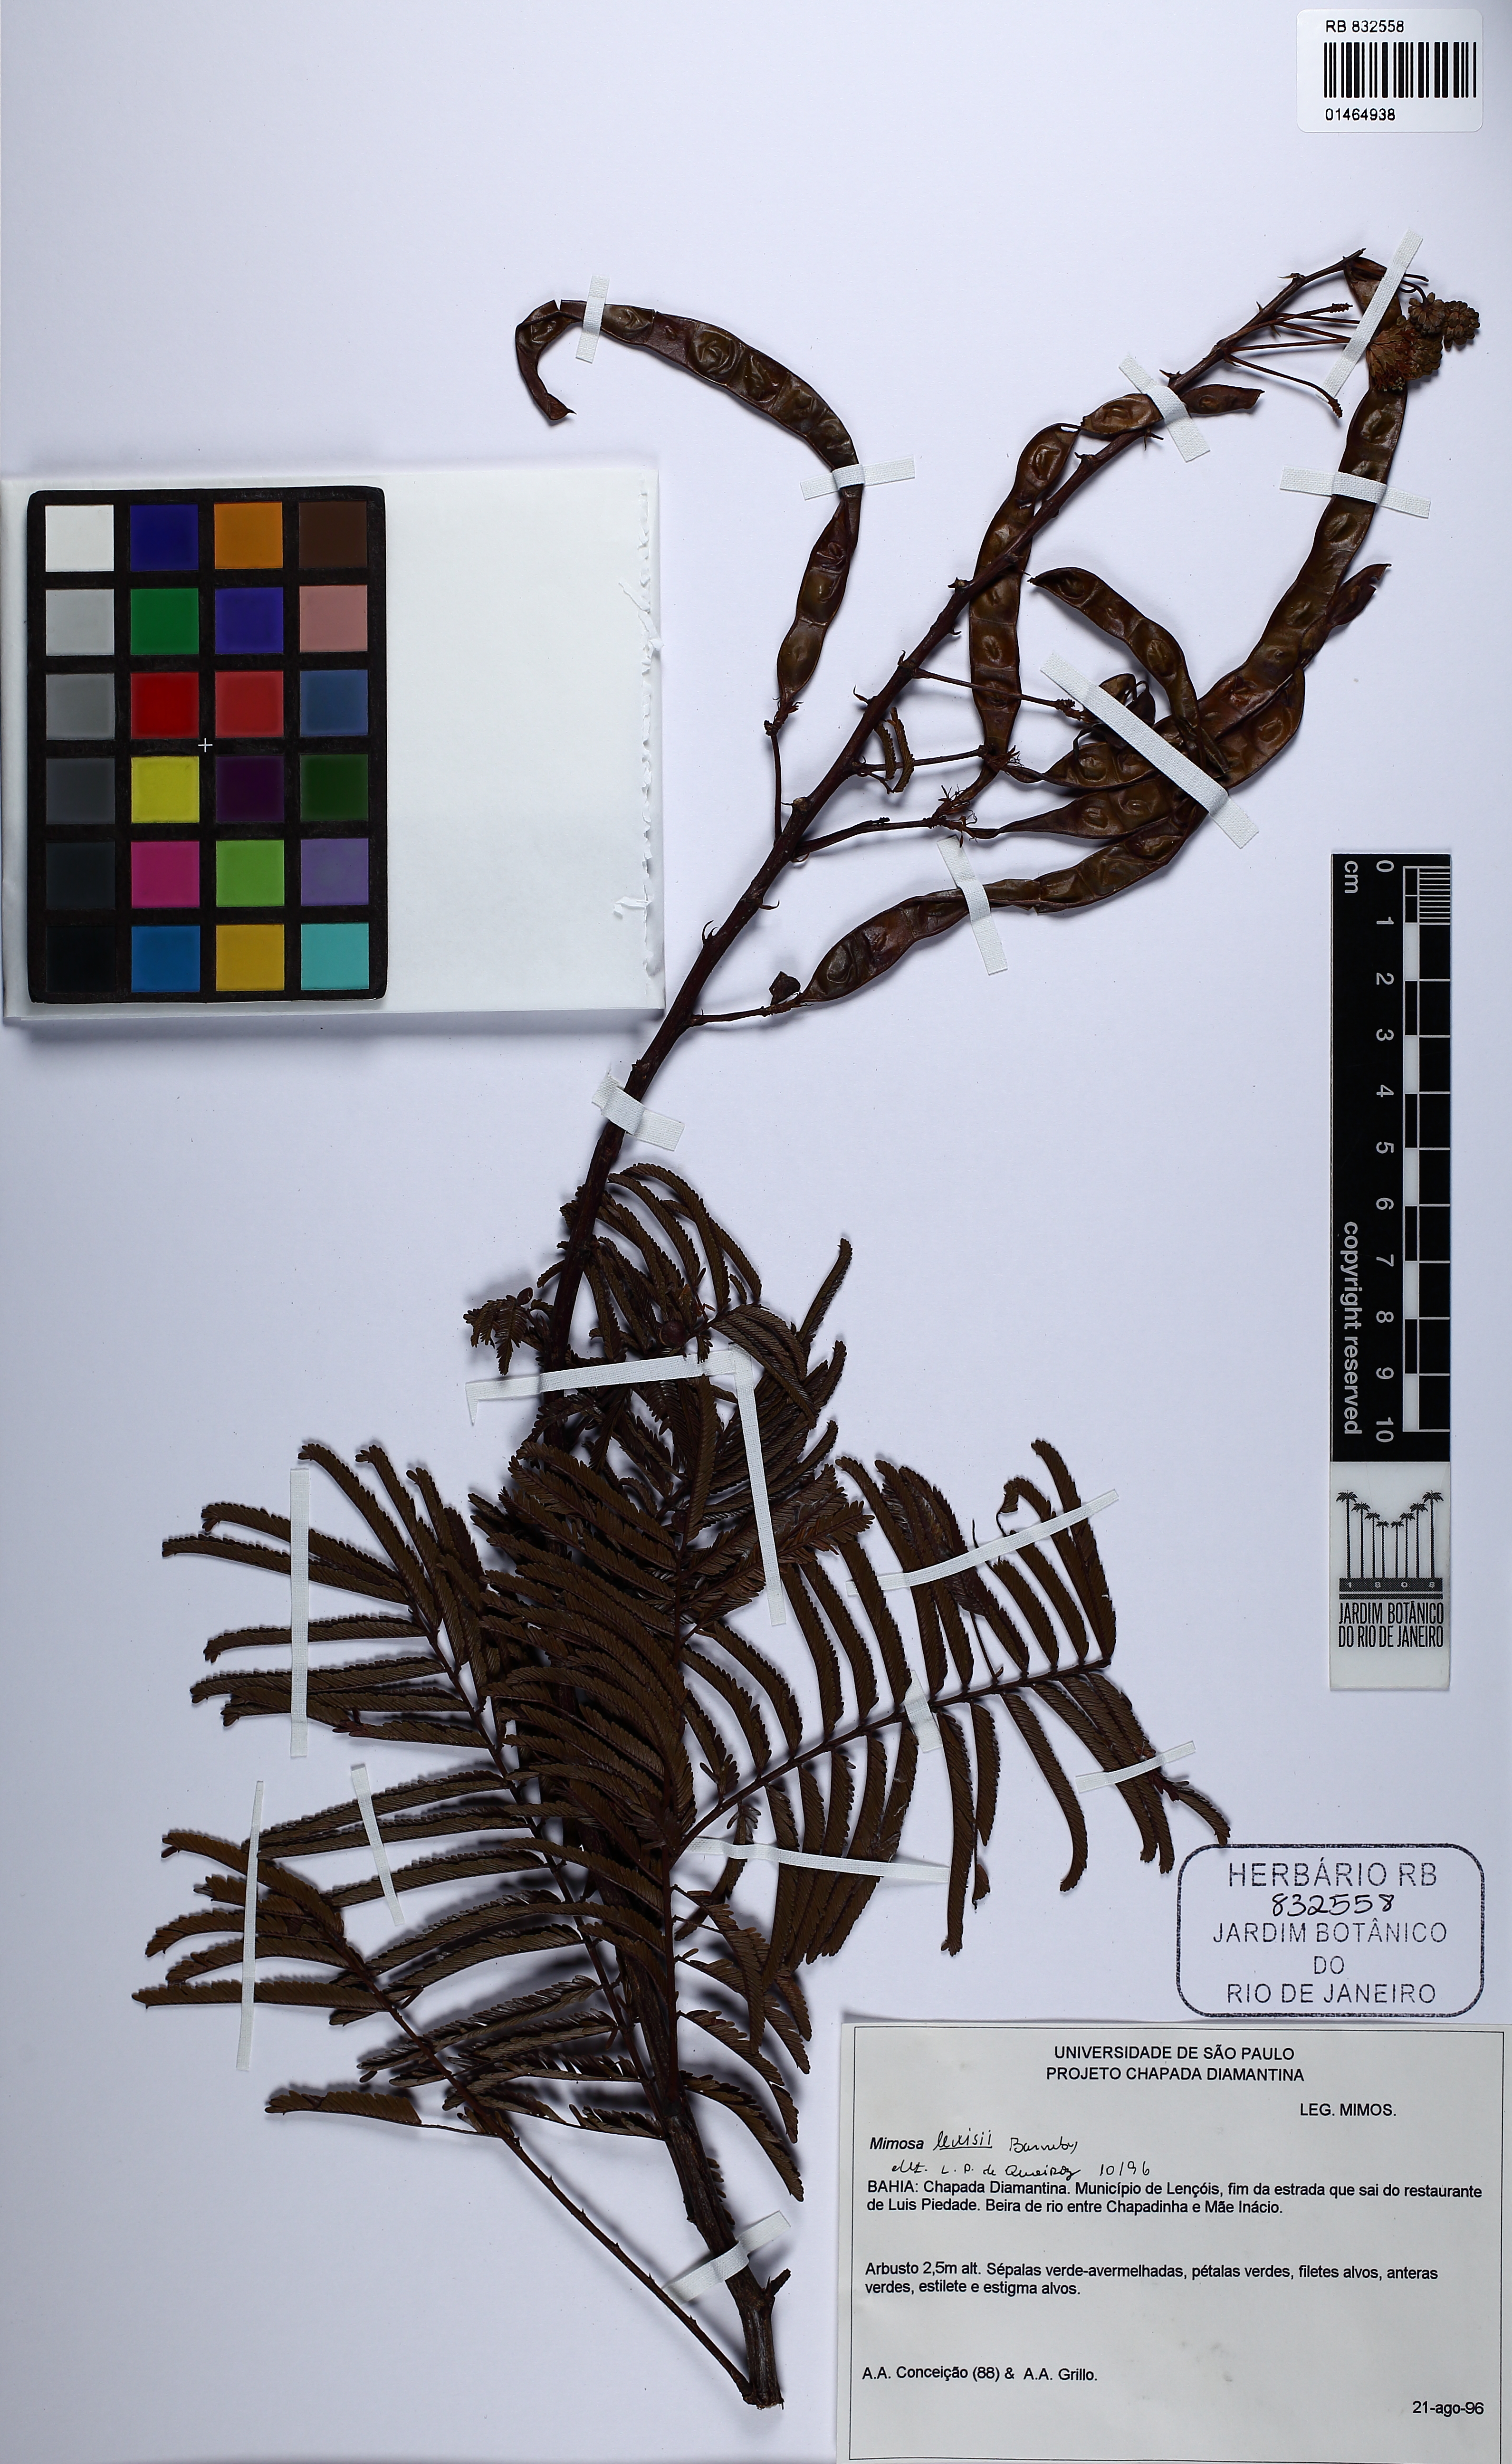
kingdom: Plantae
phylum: Tracheophyta
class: Magnoliopsida
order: Fabales
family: Fabaceae
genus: Mimosa
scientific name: Mimosa lewisii
